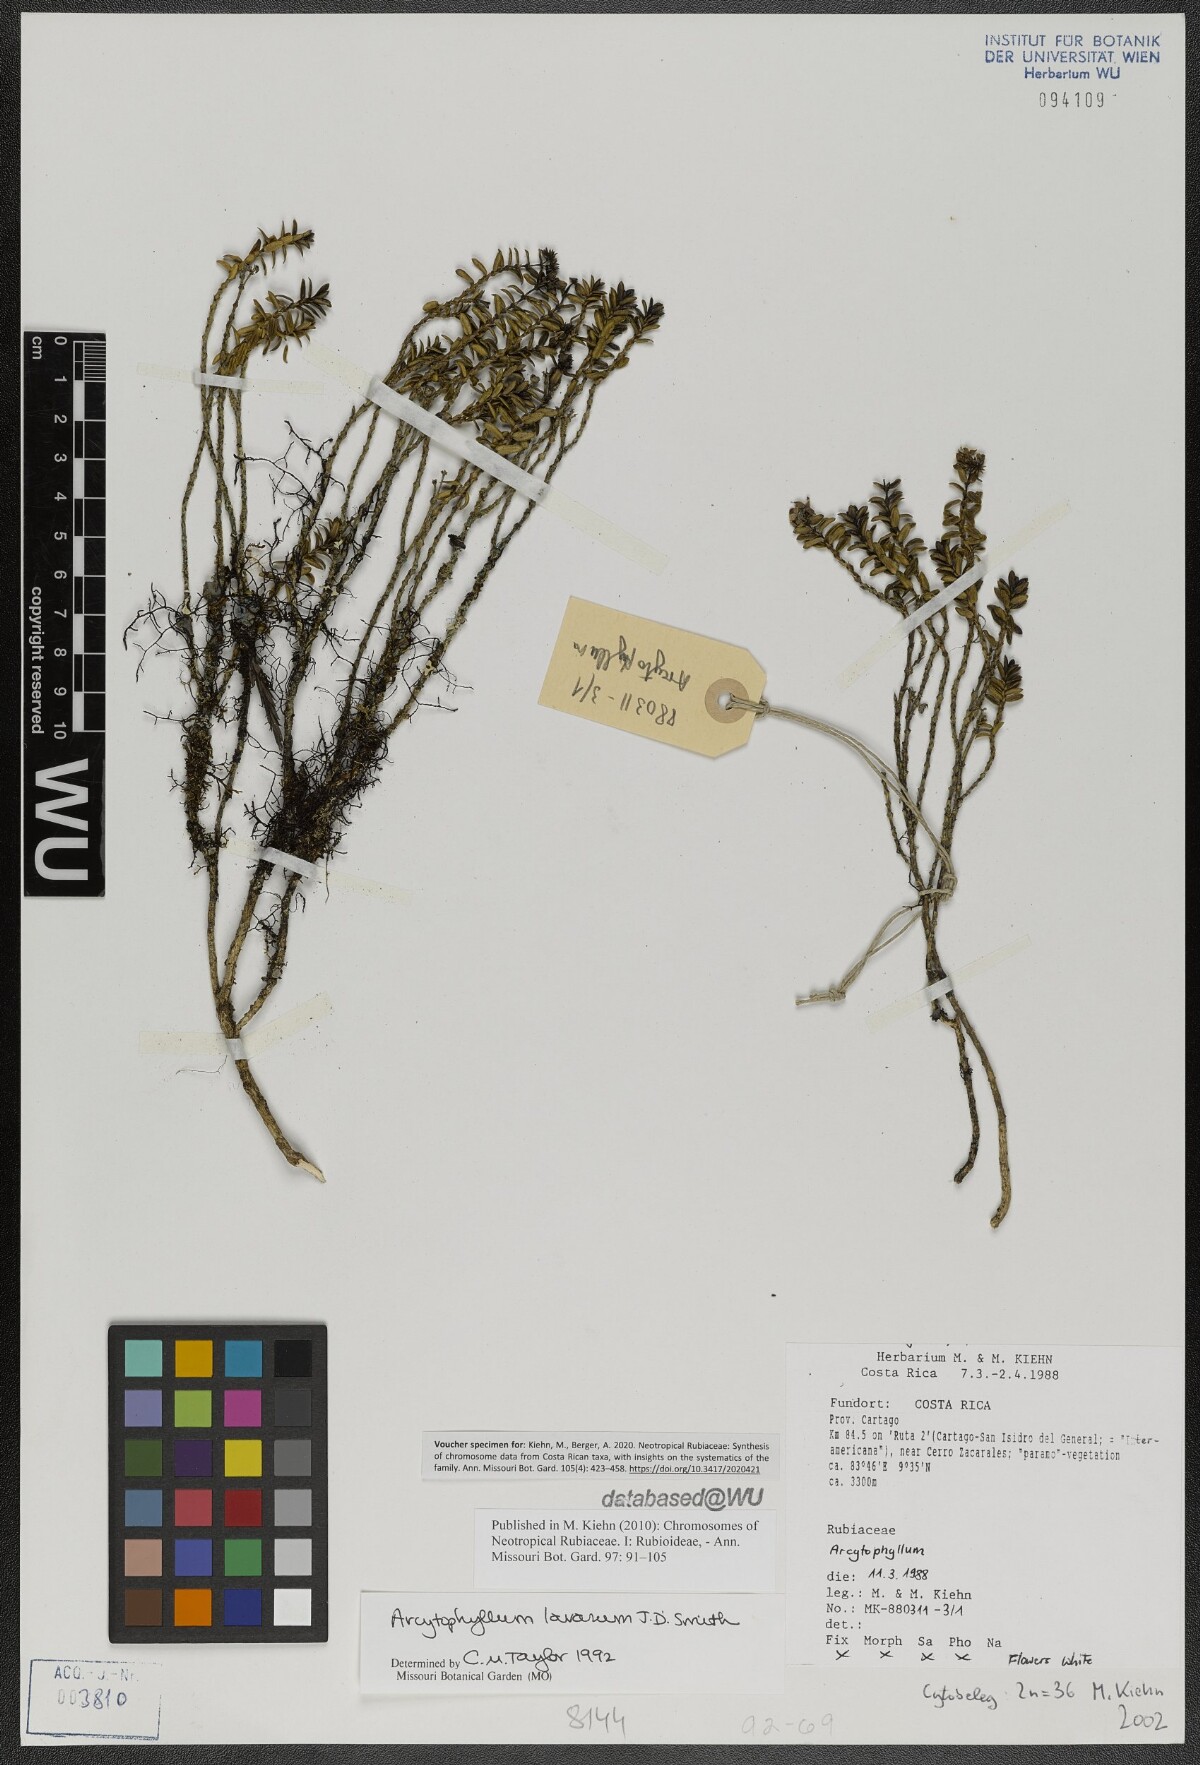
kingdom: Plantae
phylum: Tracheophyta
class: Magnoliopsida
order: Gentianales
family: Rubiaceae
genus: Arcytophyllum
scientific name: Arcytophyllum lavarum
